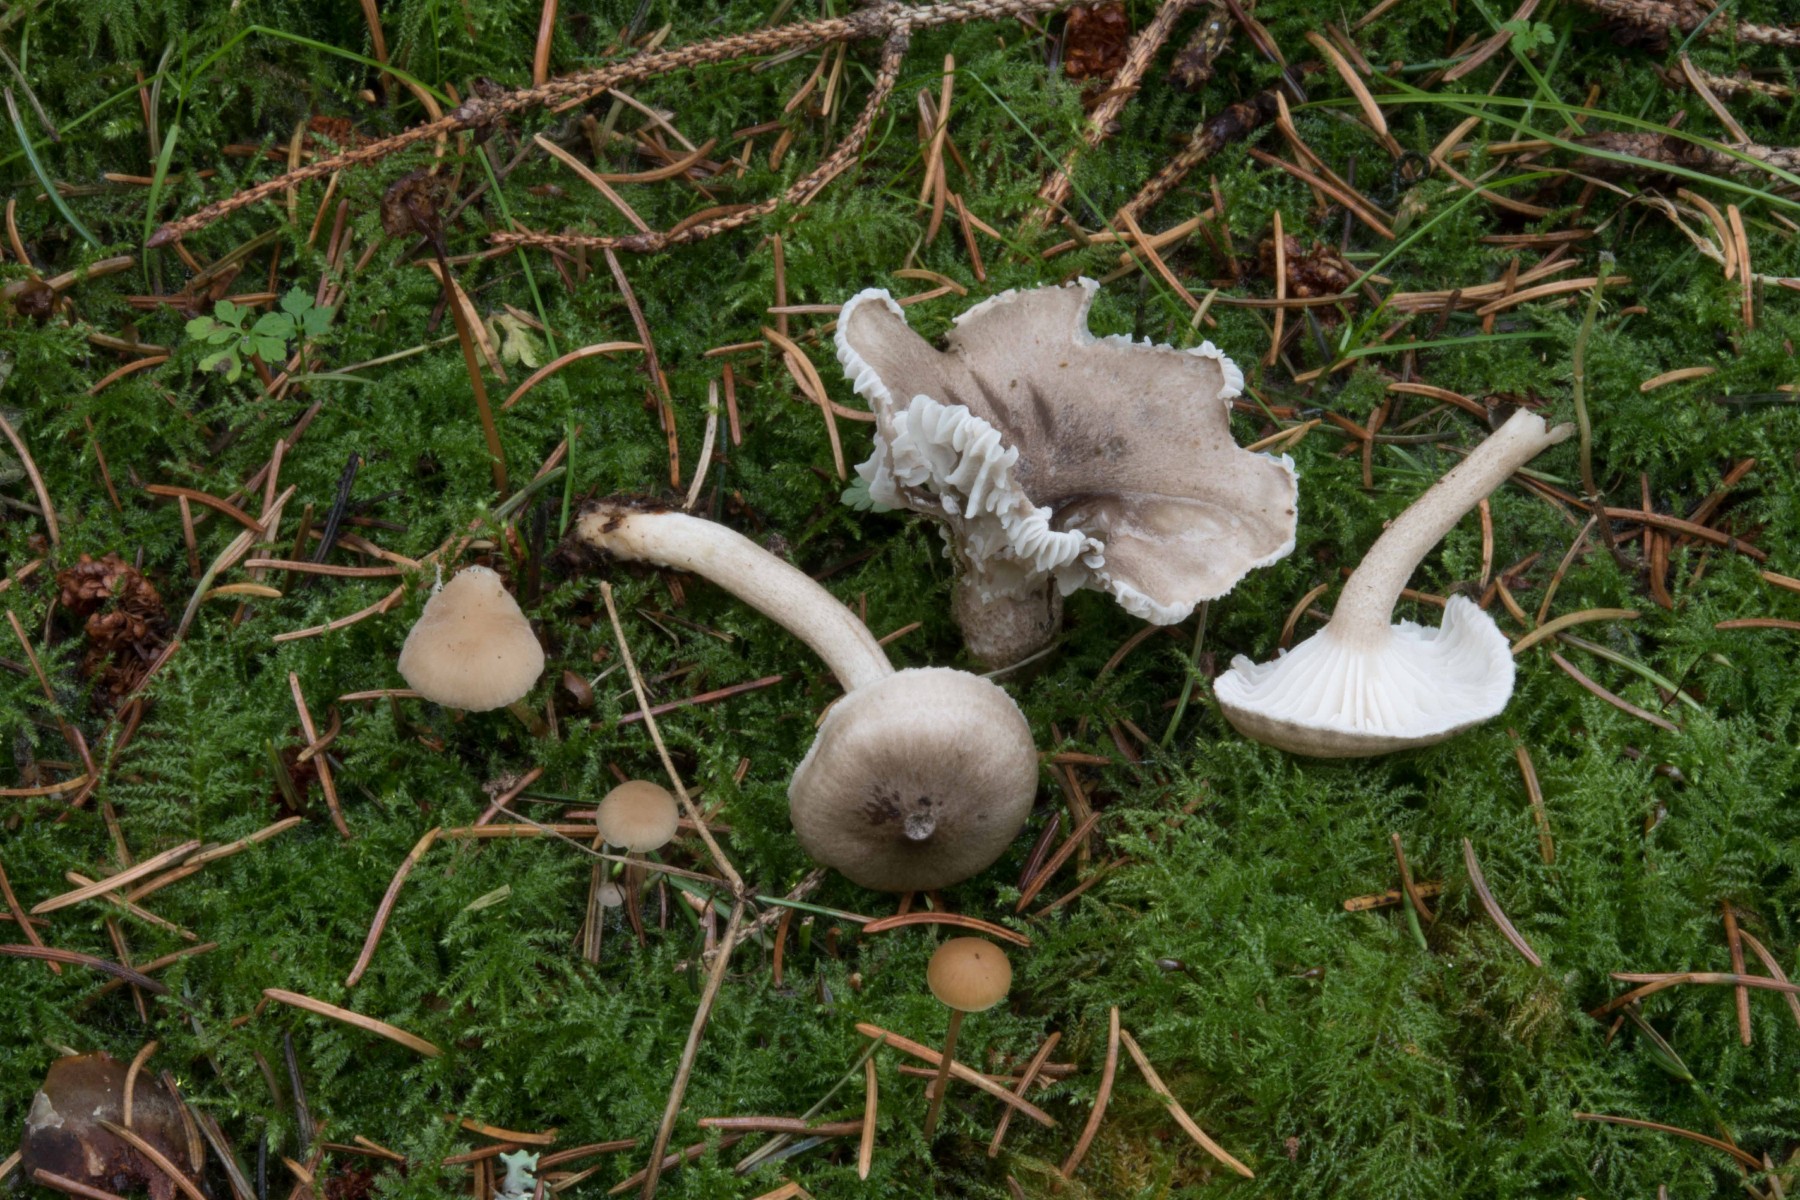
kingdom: Fungi
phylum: Basidiomycota
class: Agaricomycetes
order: Agaricales
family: Hygrophoraceae
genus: Hygrophorus
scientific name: Hygrophorus pustulatus
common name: mørkprikket sneglehat
